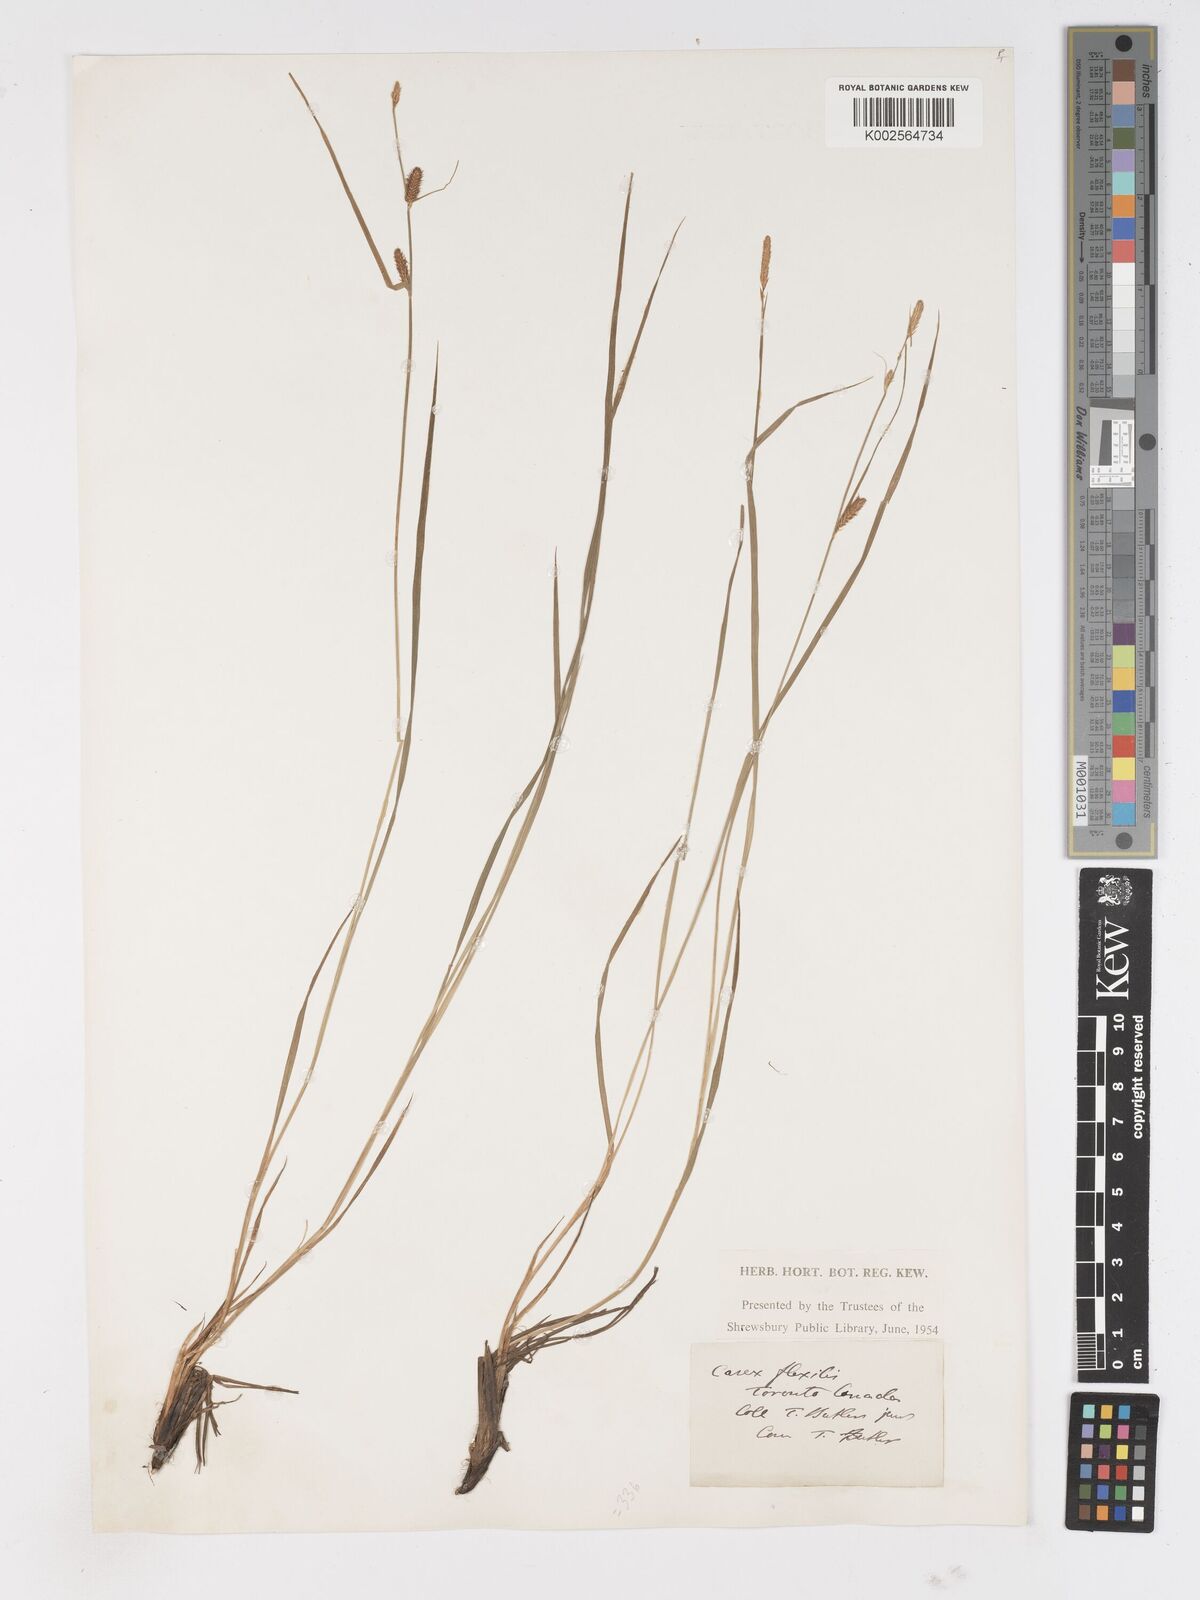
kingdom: Plantae
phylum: Tracheophyta
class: Liliopsida
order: Poales
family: Cyperaceae
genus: Carex
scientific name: Carex
